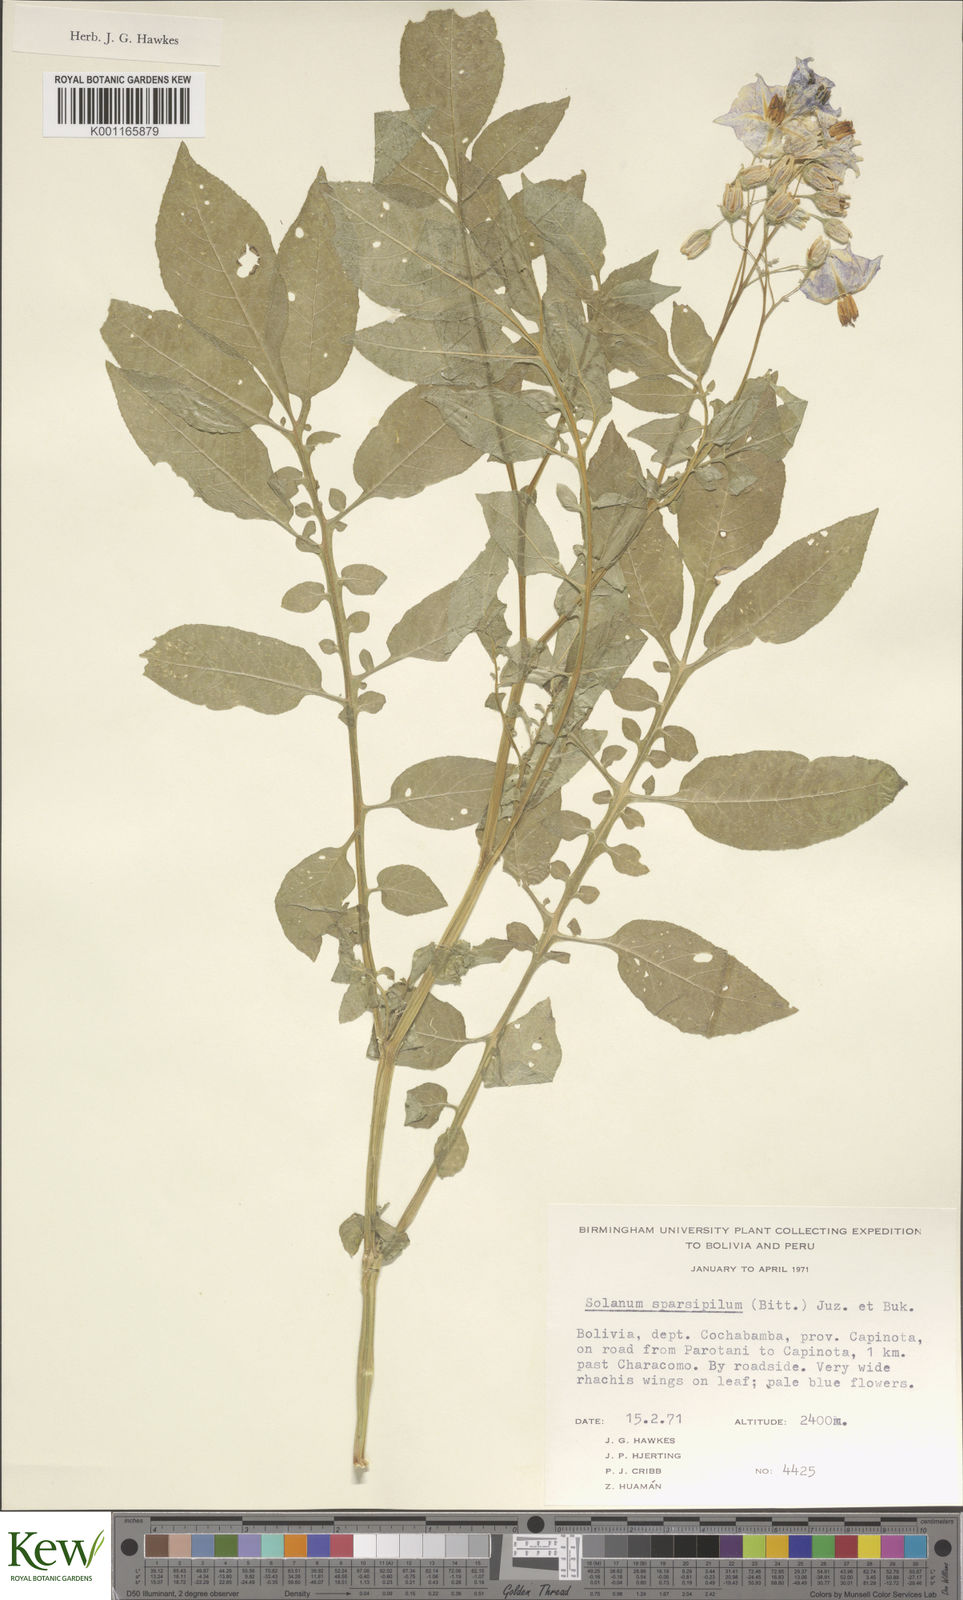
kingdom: Plantae
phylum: Tracheophyta
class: Magnoliopsida
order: Solanales
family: Solanaceae
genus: Solanum
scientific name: Solanum brevicaule
